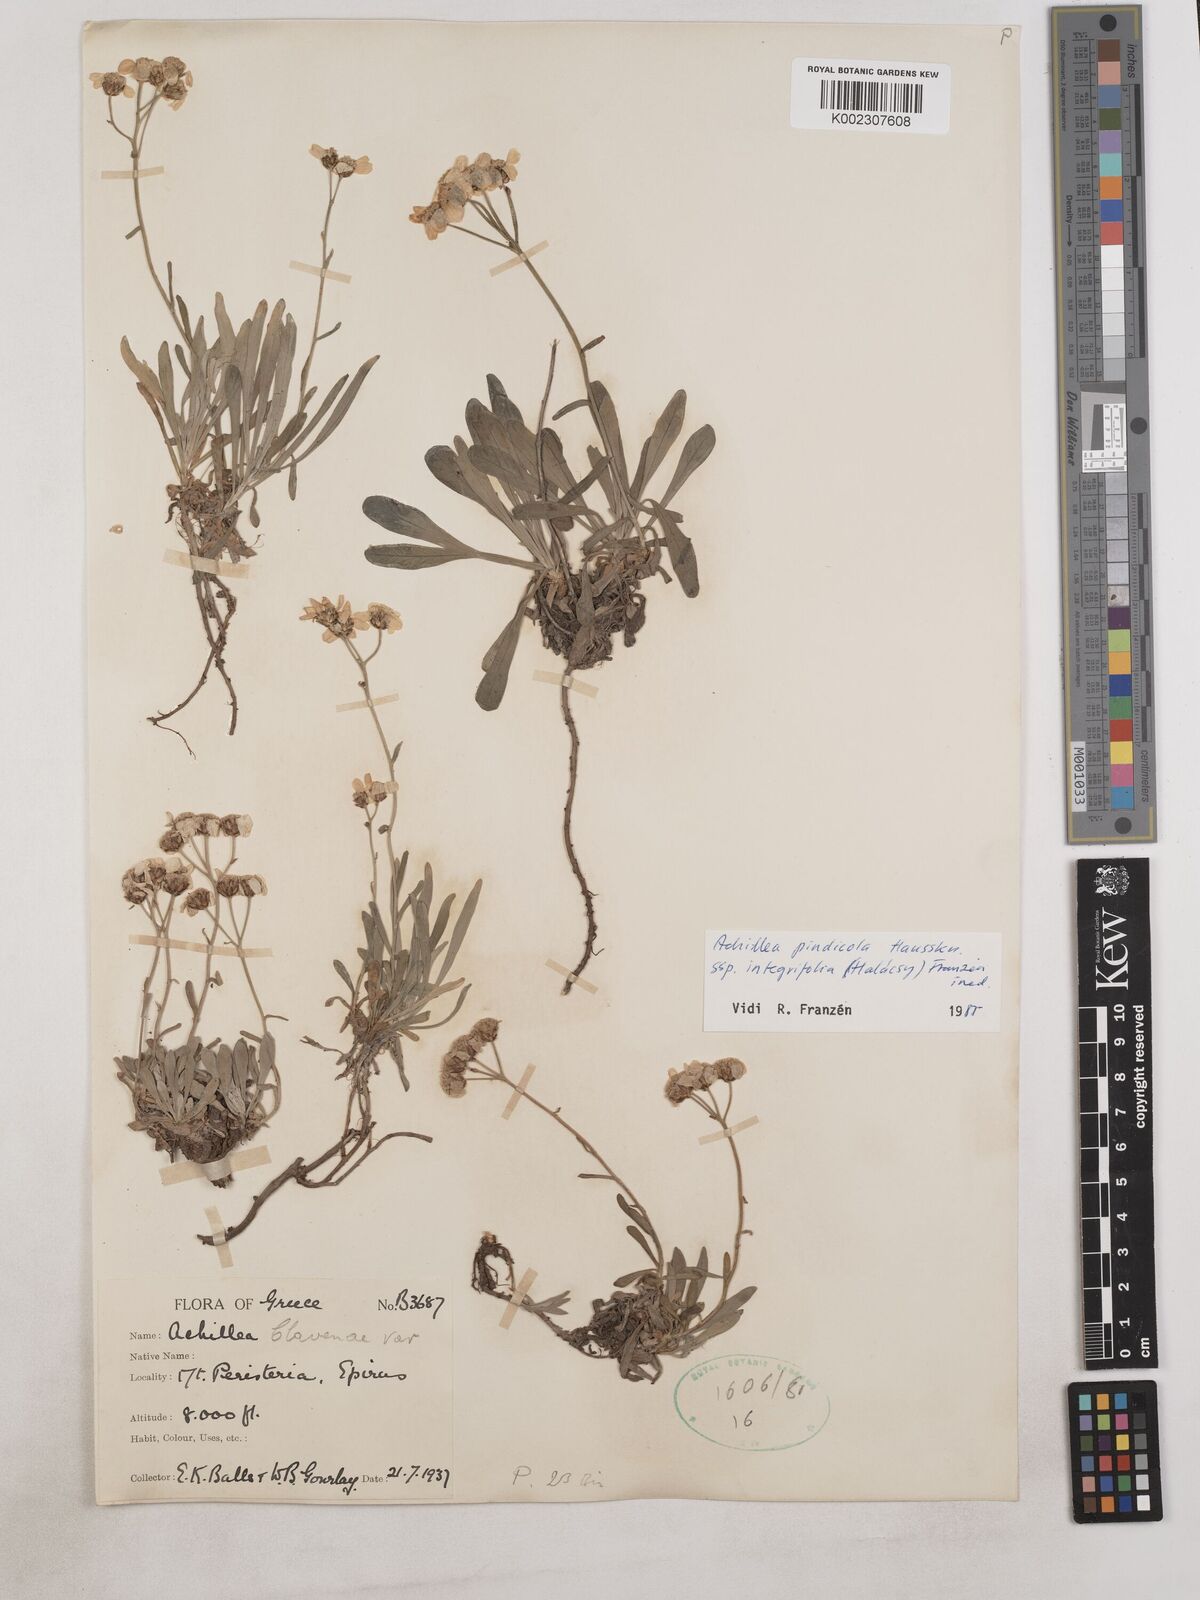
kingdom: Plantae
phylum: Tracheophyta
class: Magnoliopsida
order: Asterales
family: Asteraceae
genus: Achillea
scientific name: Achillea pindicola
